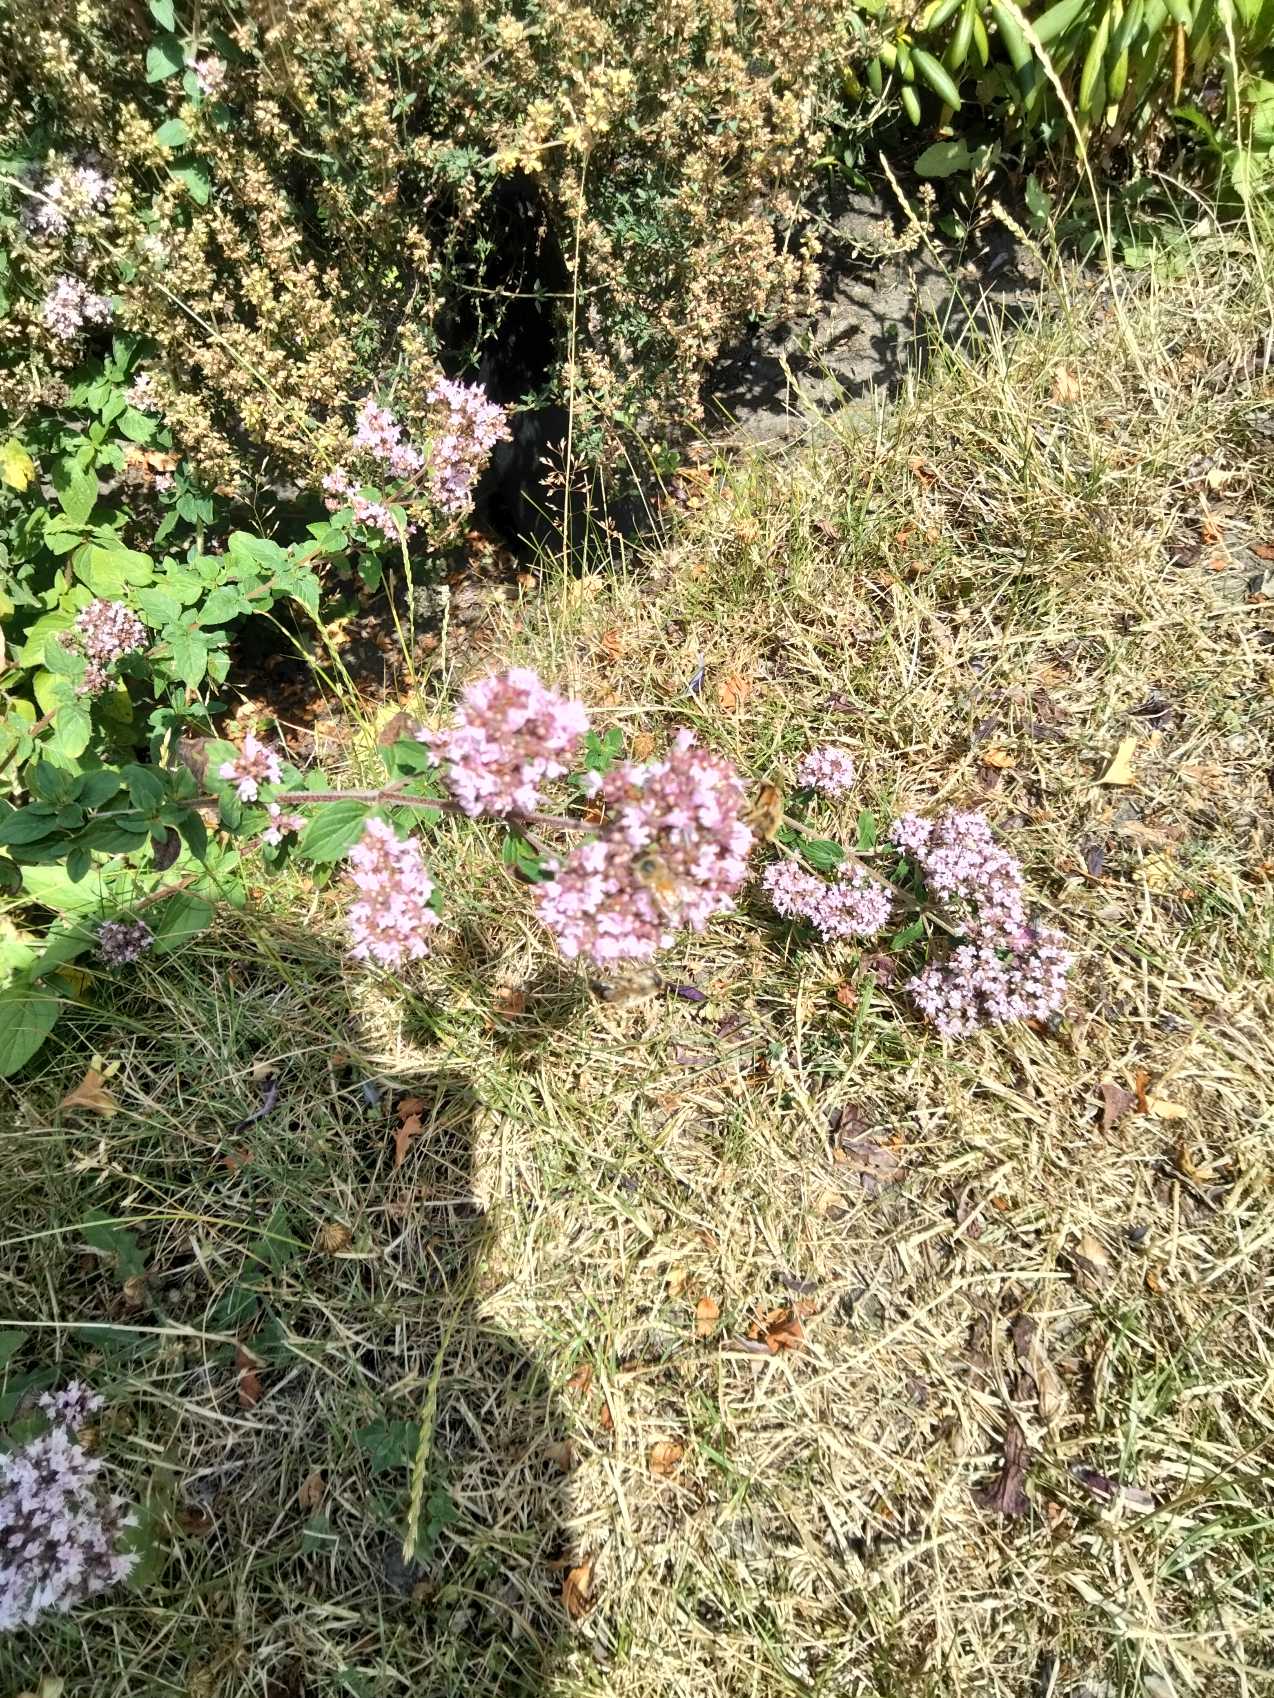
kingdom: Plantae
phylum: Tracheophyta
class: Magnoliopsida
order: Lamiales
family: Lamiaceae
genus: Origanum
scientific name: Origanum vulgare
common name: Merian
